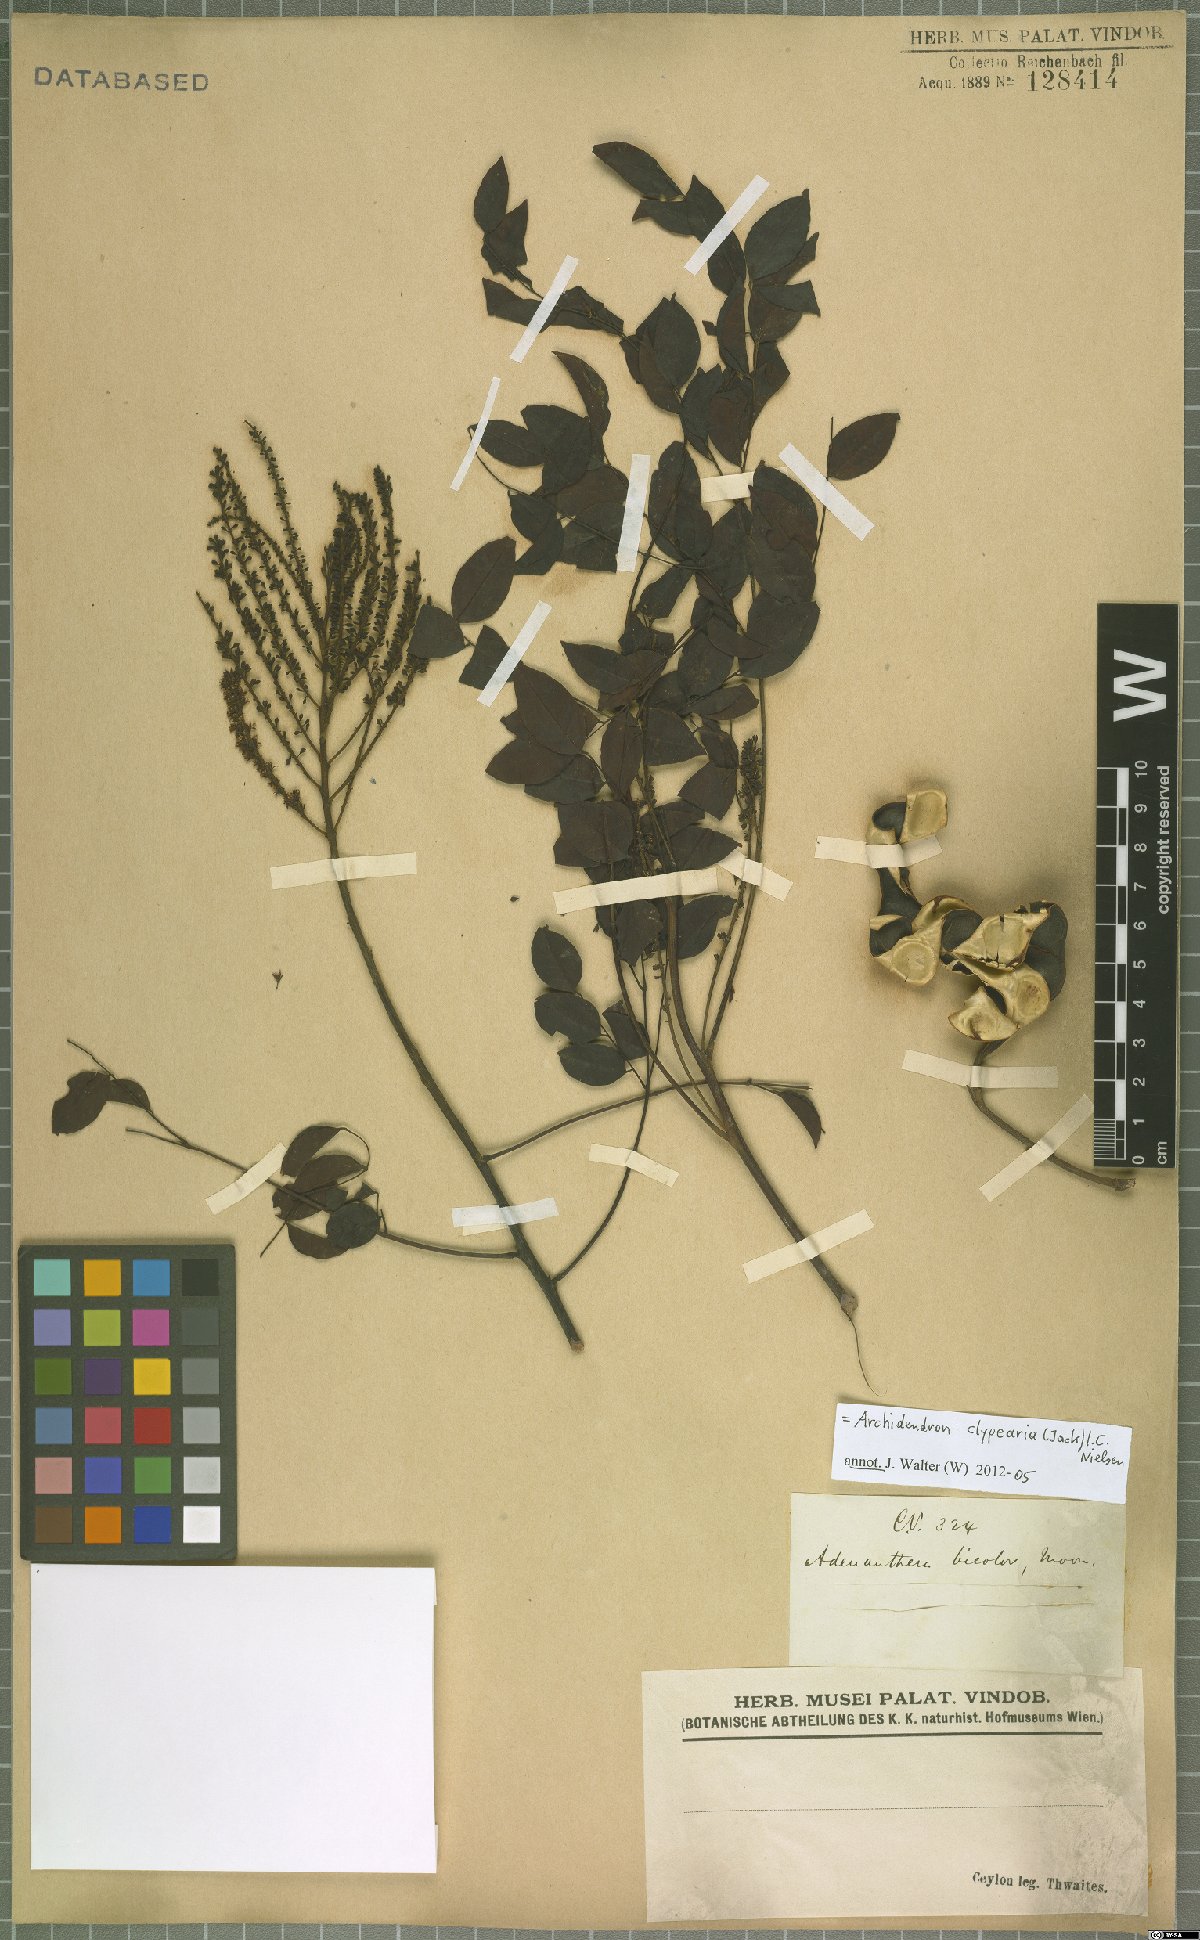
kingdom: Plantae
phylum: Tracheophyta
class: Magnoliopsida
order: Fabales
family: Fabaceae
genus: Archidendron
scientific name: Archidendron clypearia
